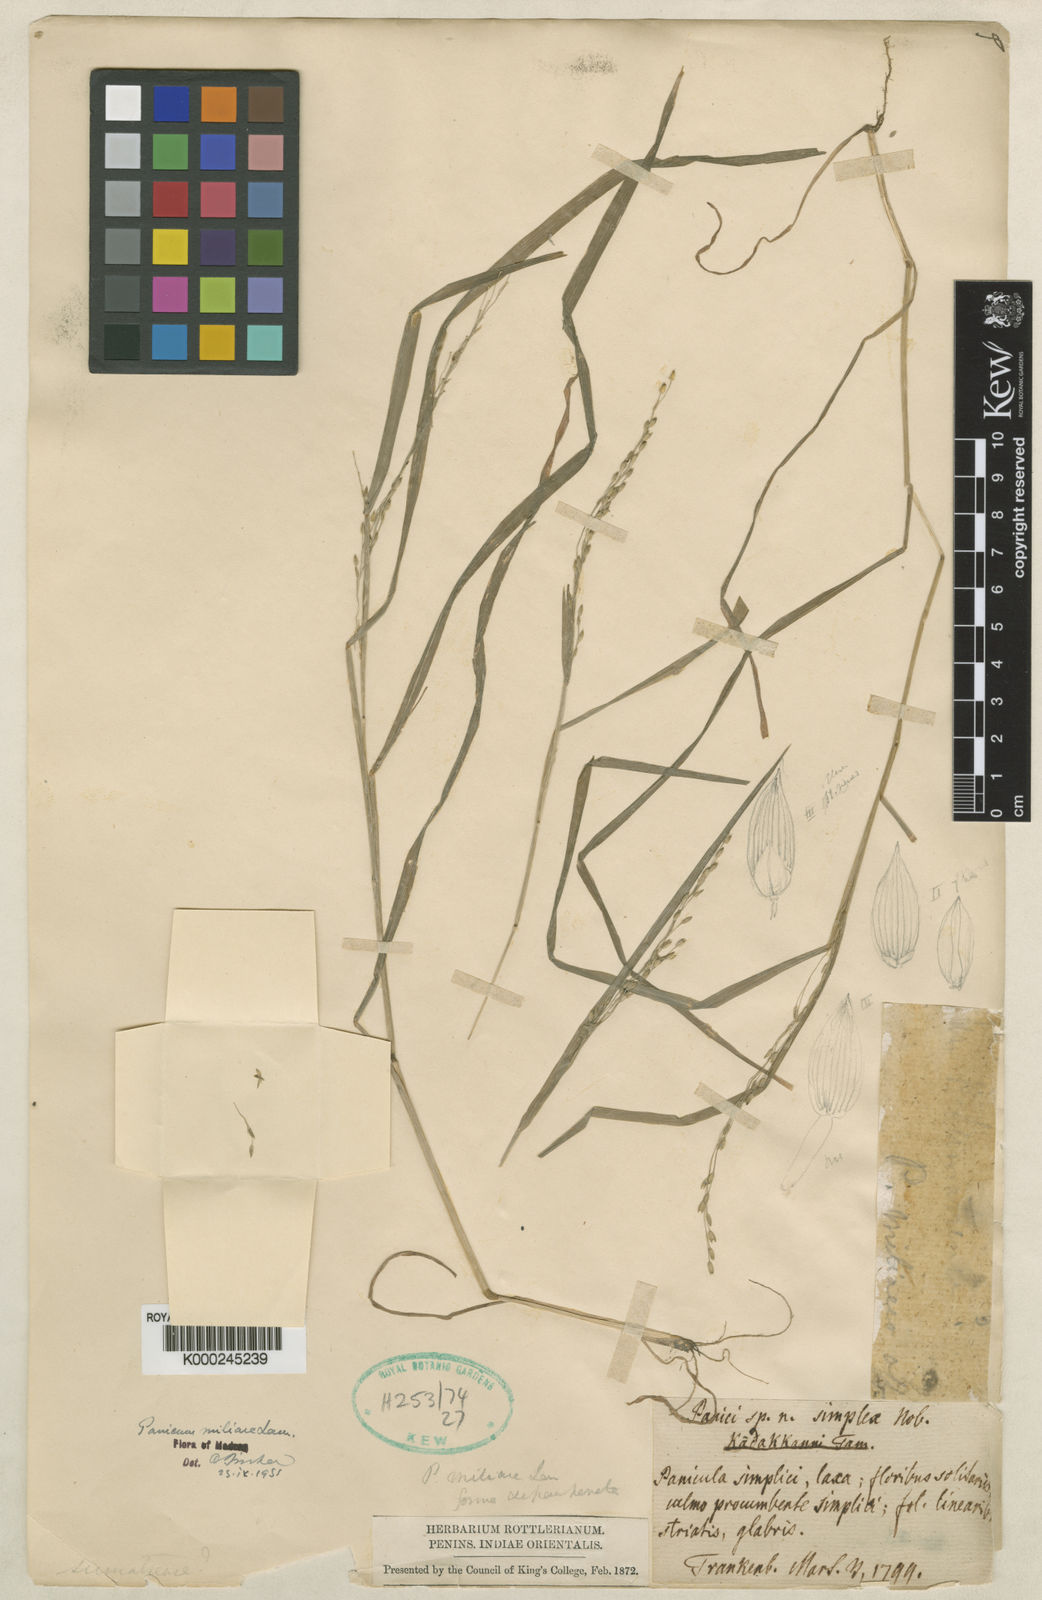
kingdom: Plantae
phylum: Tracheophyta
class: Liliopsida
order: Poales
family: Poaceae
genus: Panicum
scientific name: Panicum sumatrense
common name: Little millet
